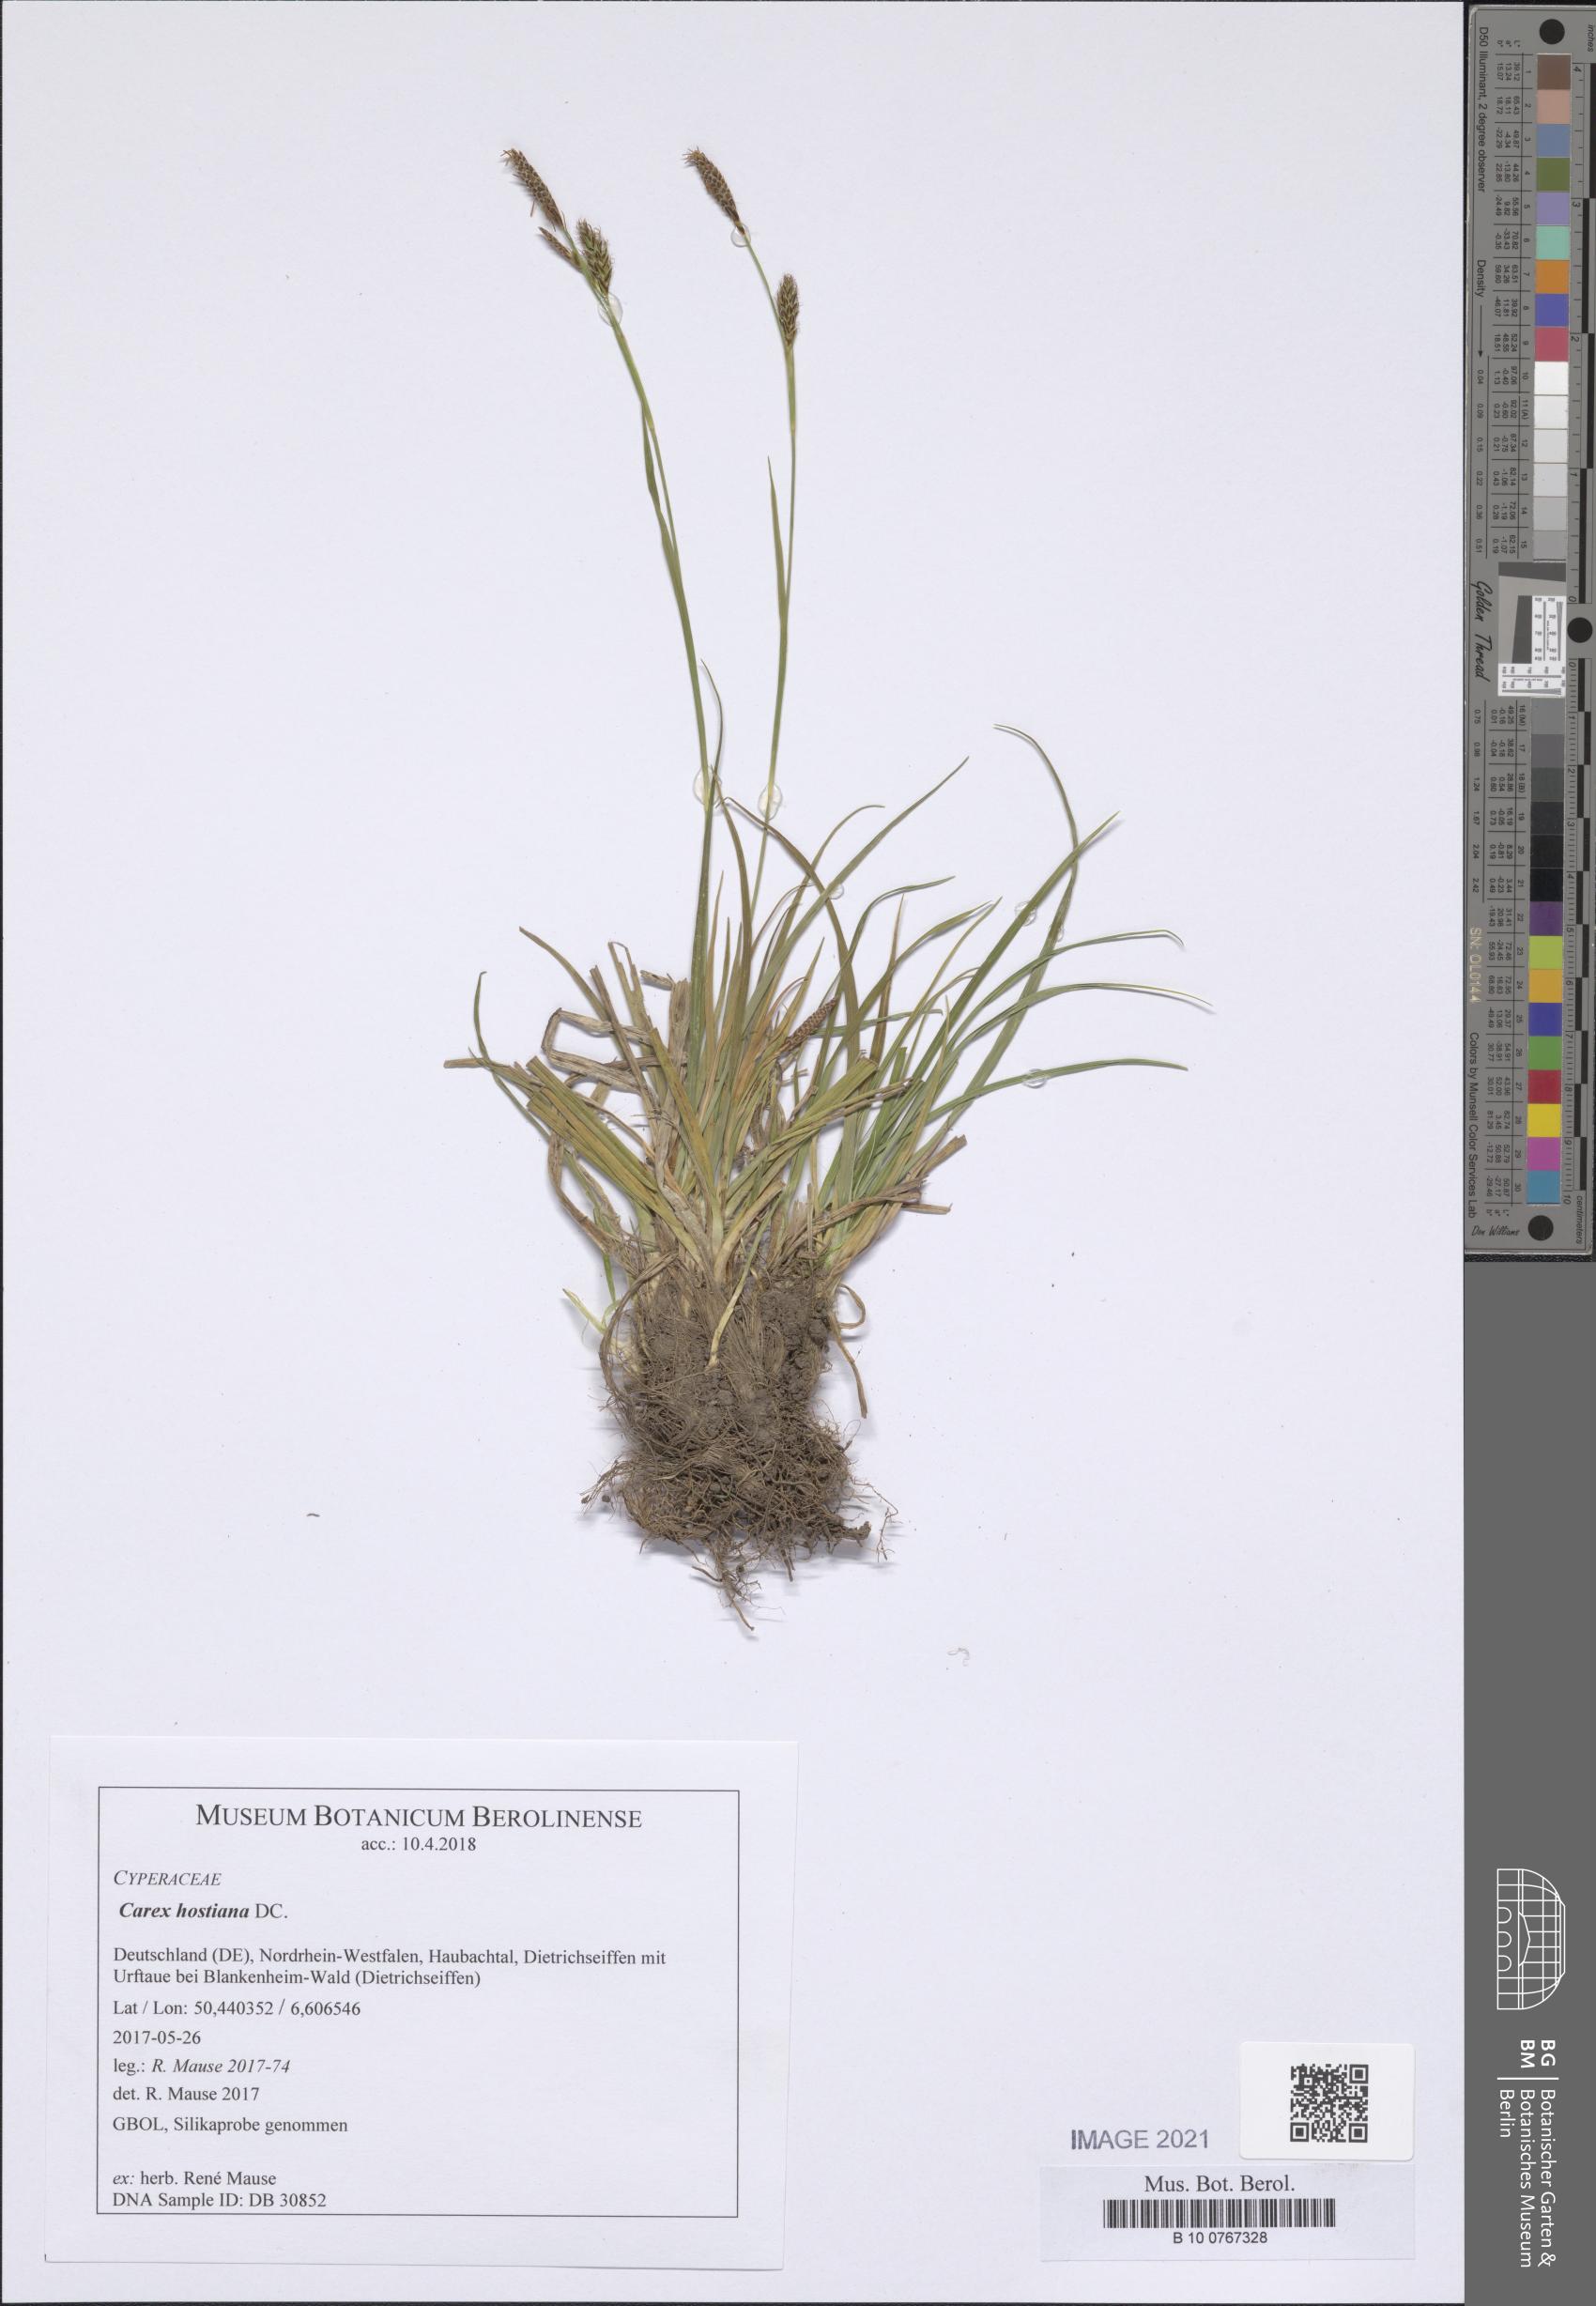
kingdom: Plantae
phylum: Tracheophyta
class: Liliopsida
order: Poales
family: Cyperaceae
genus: Carex
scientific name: Carex hostiana
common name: Tawny sedge
